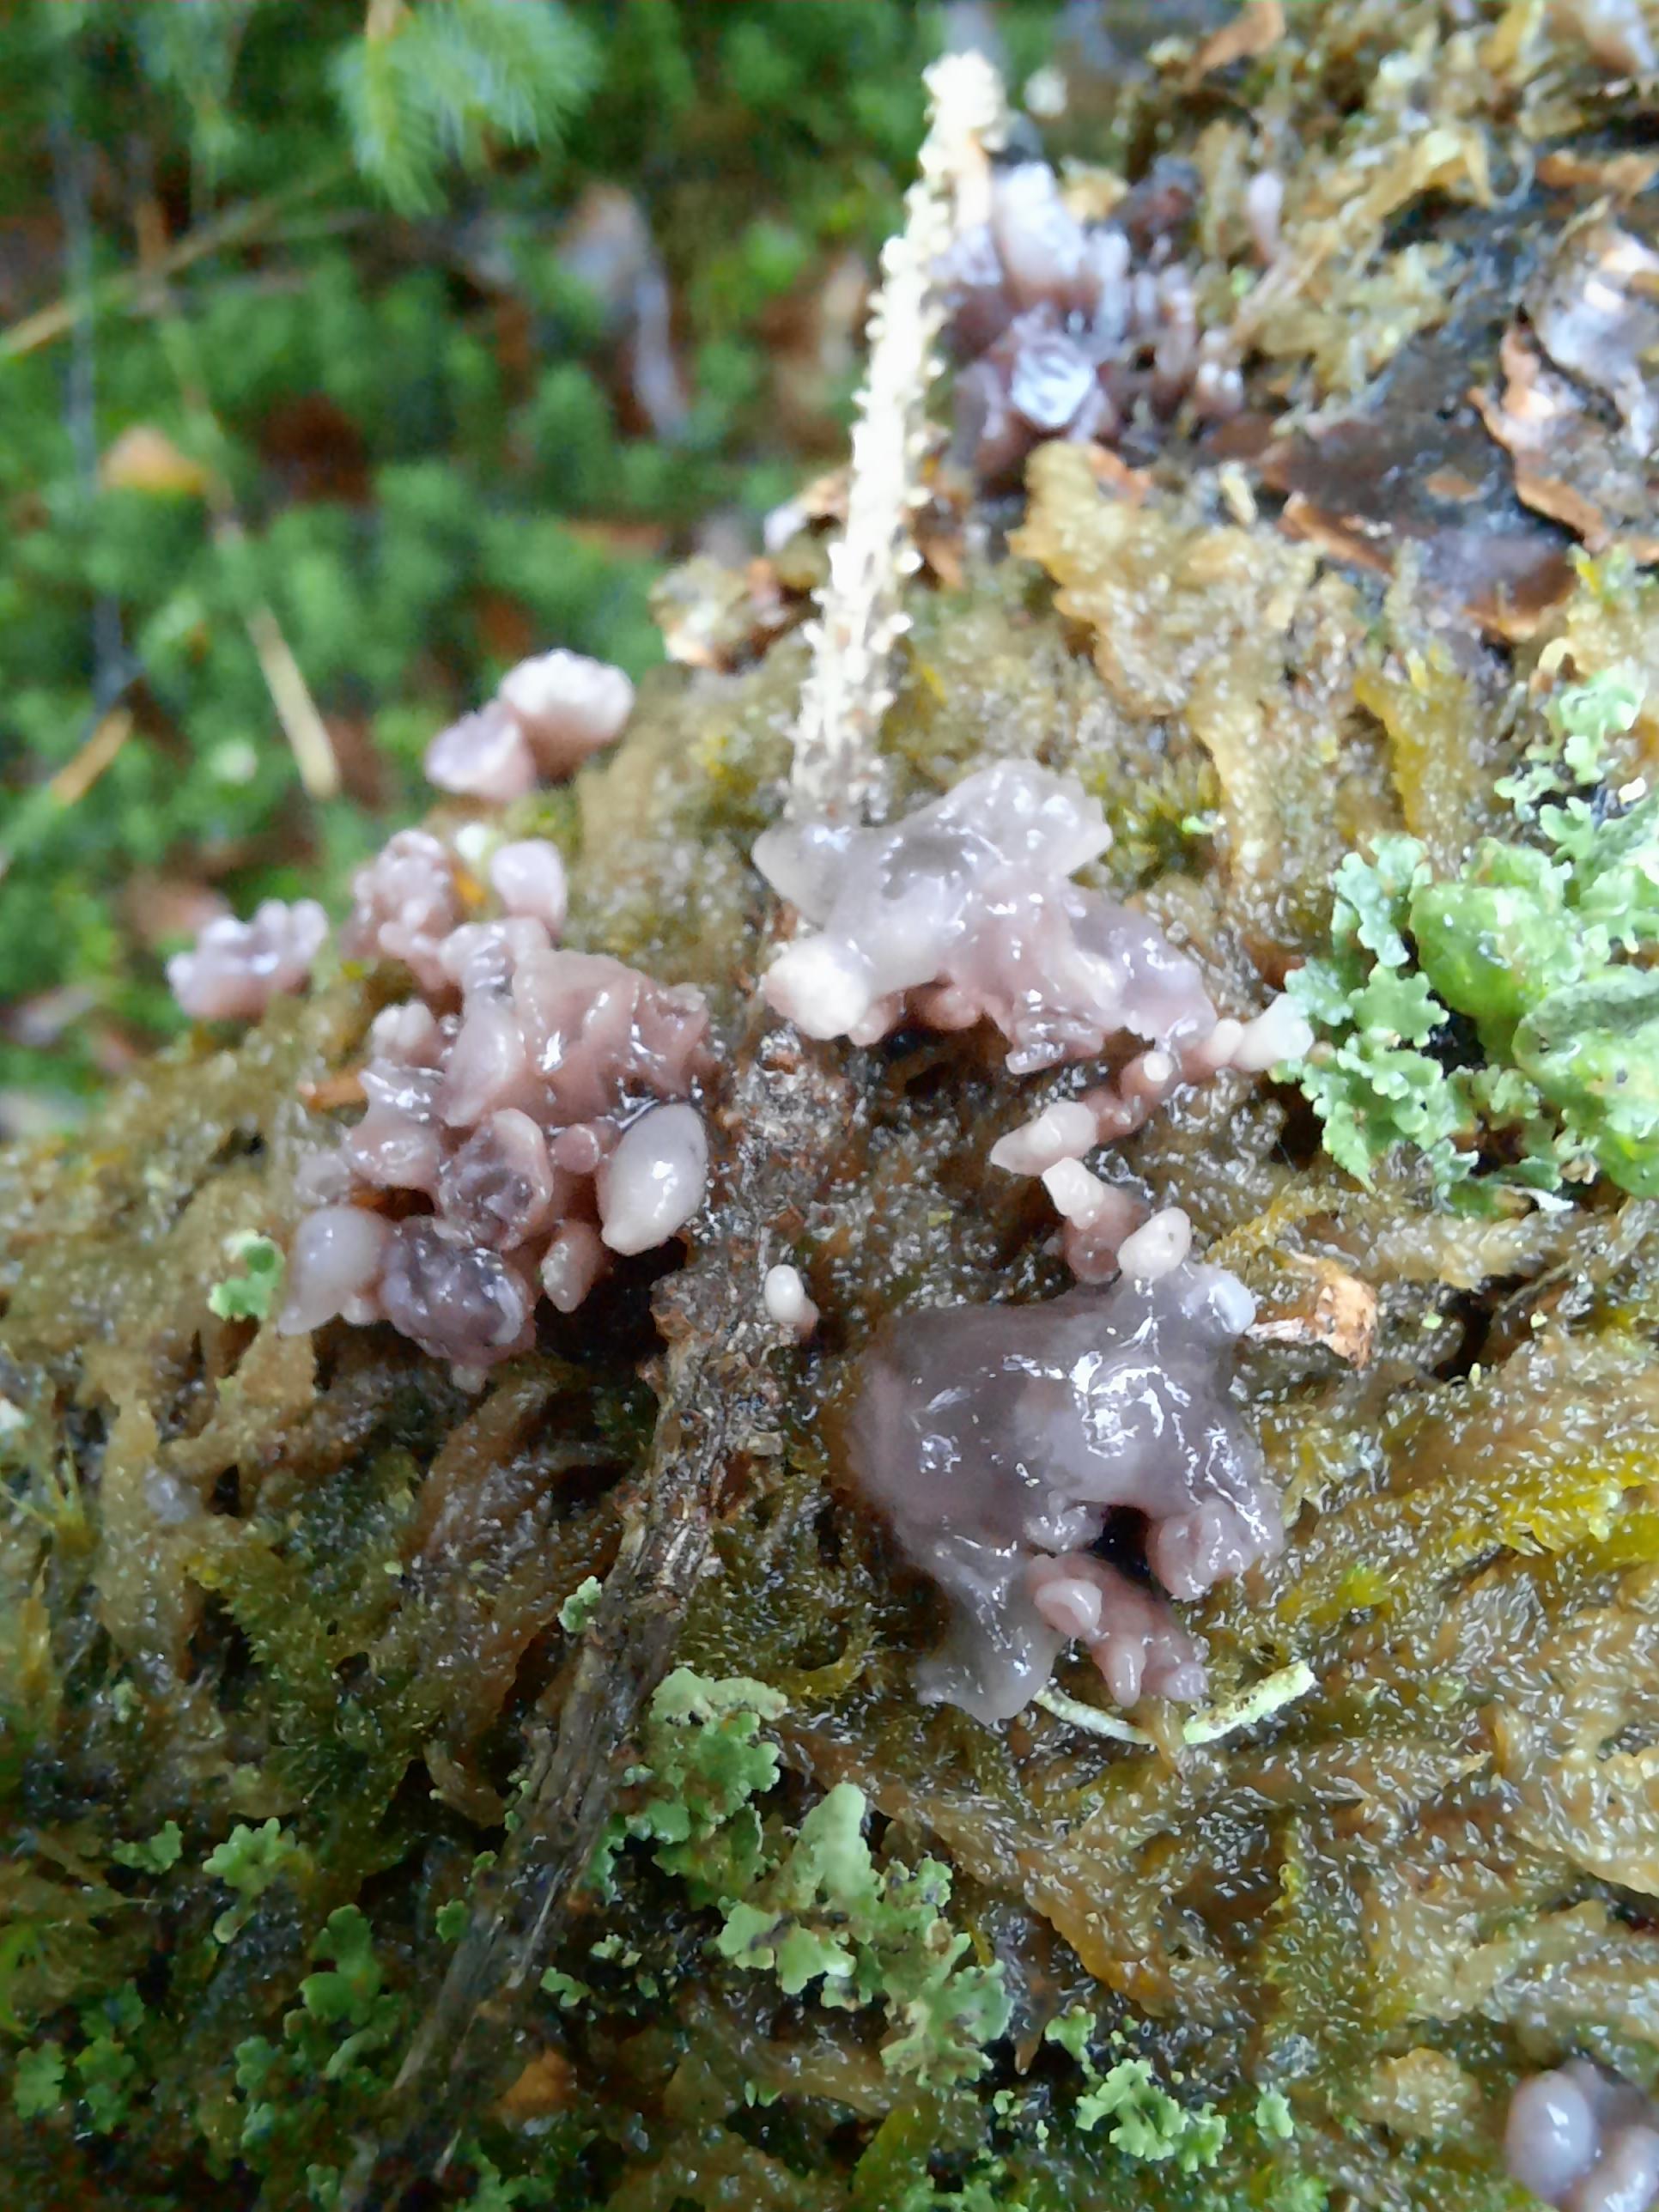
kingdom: Fungi
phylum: Ascomycota
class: Leotiomycetes
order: Helotiales
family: Gelatinodiscaceae
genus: Ascocoryne
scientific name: Ascocoryne sarcoides
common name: rødlilla sejskive
